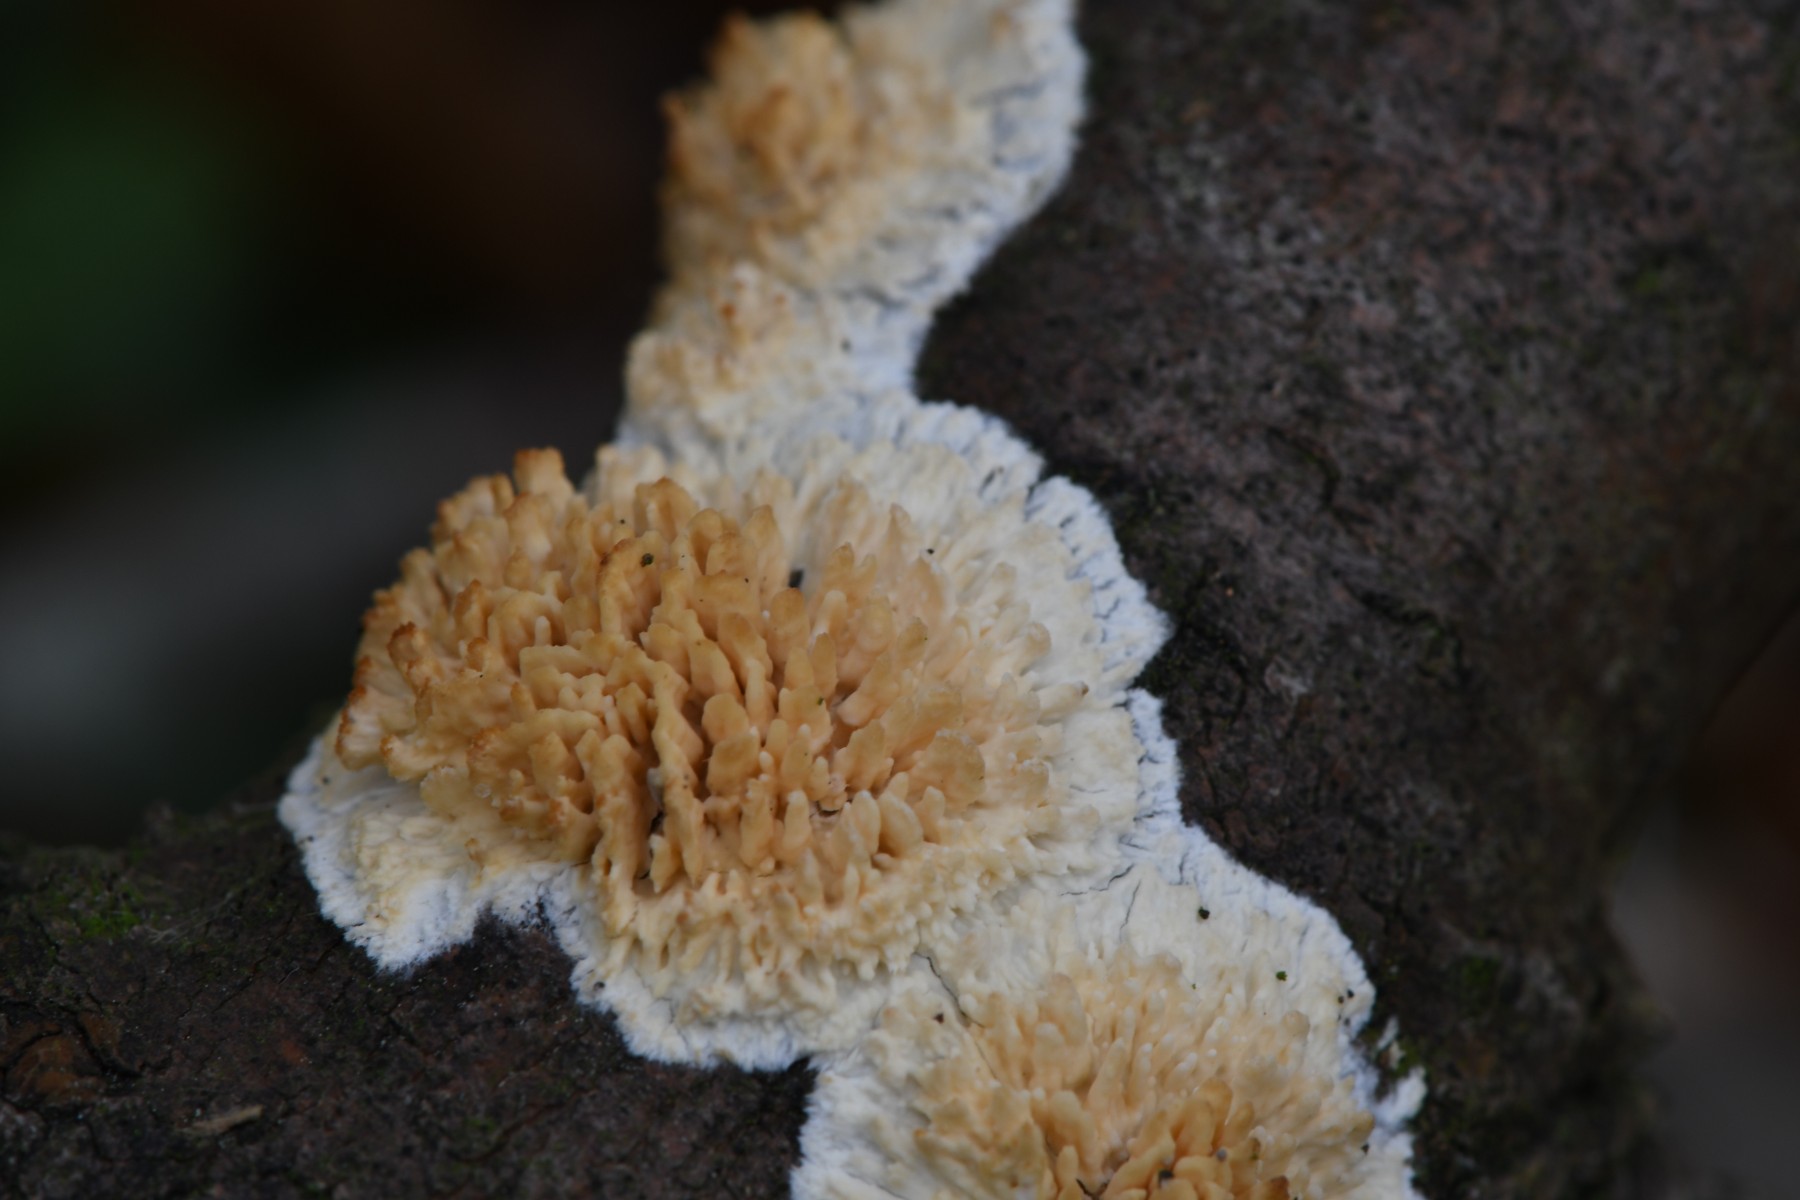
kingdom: Fungi
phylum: Basidiomycota
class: Agaricomycetes
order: Hymenochaetales
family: Schizoporaceae
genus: Xylodon
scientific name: Xylodon radula
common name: grovtandet kalkskind
